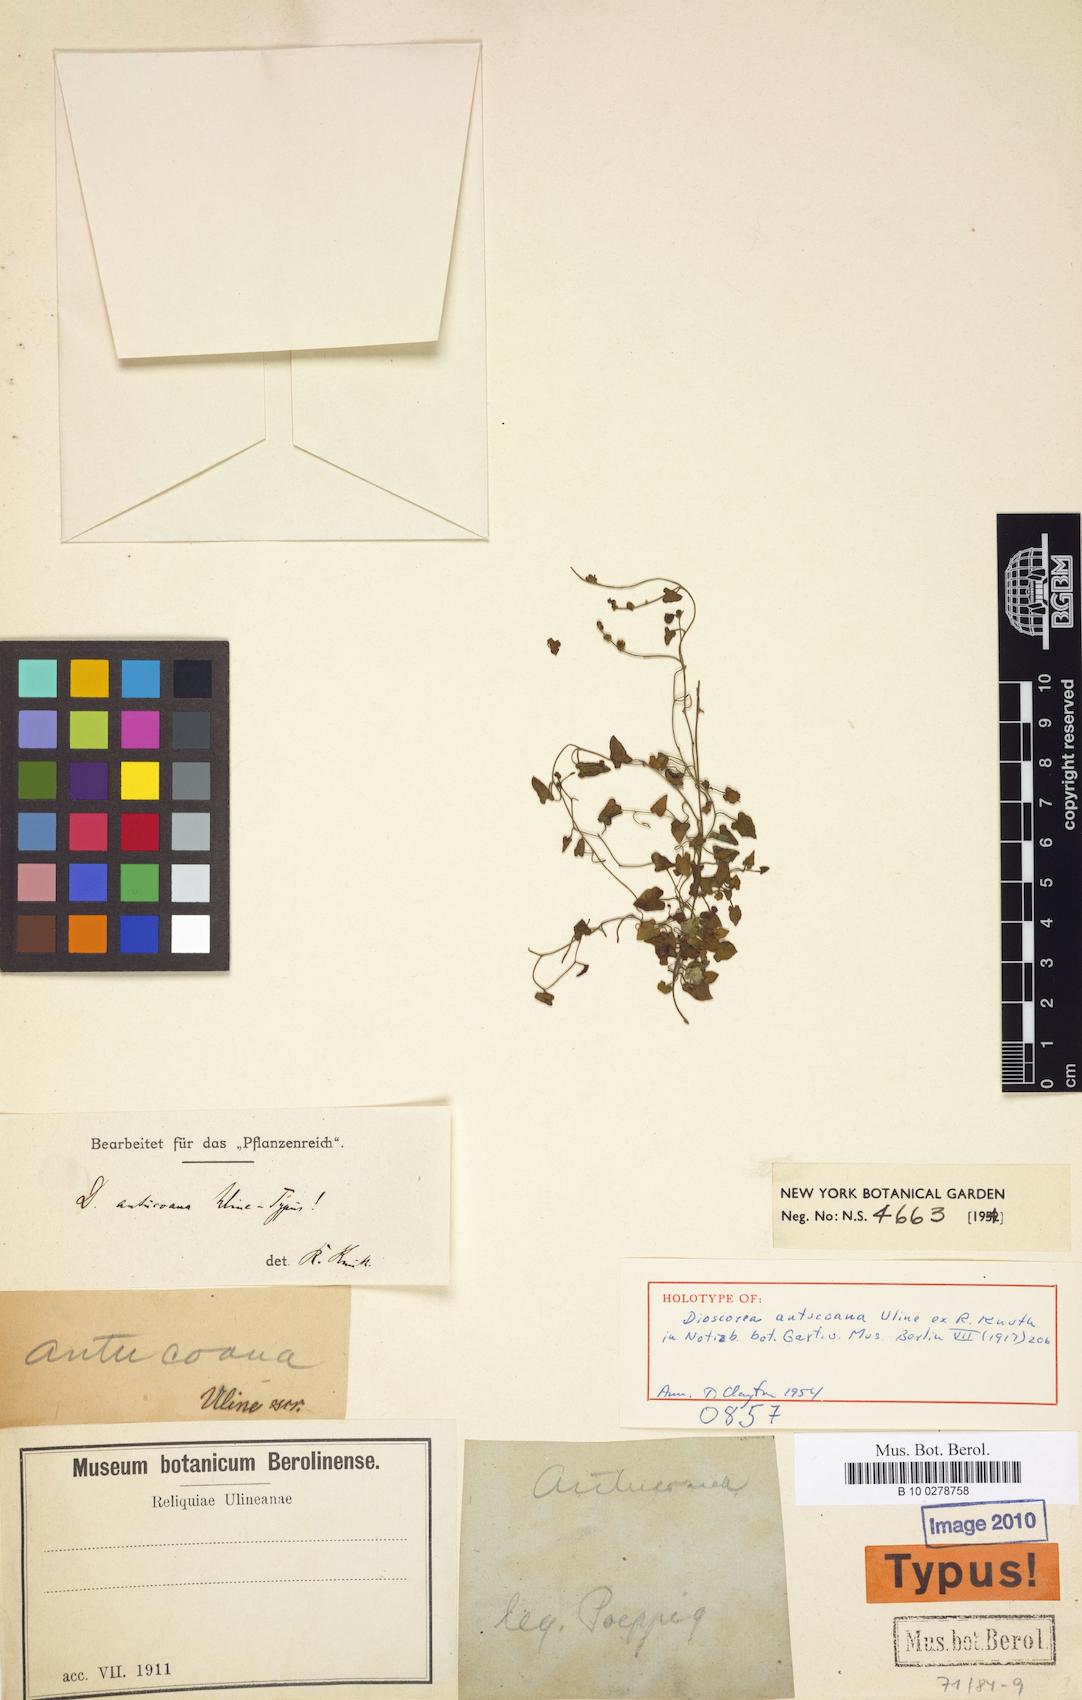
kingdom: Plantae
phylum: Tracheophyta
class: Liliopsida
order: Dioscoreales
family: Dioscoreaceae
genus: Dioscorea
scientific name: Dioscorea antucoana
